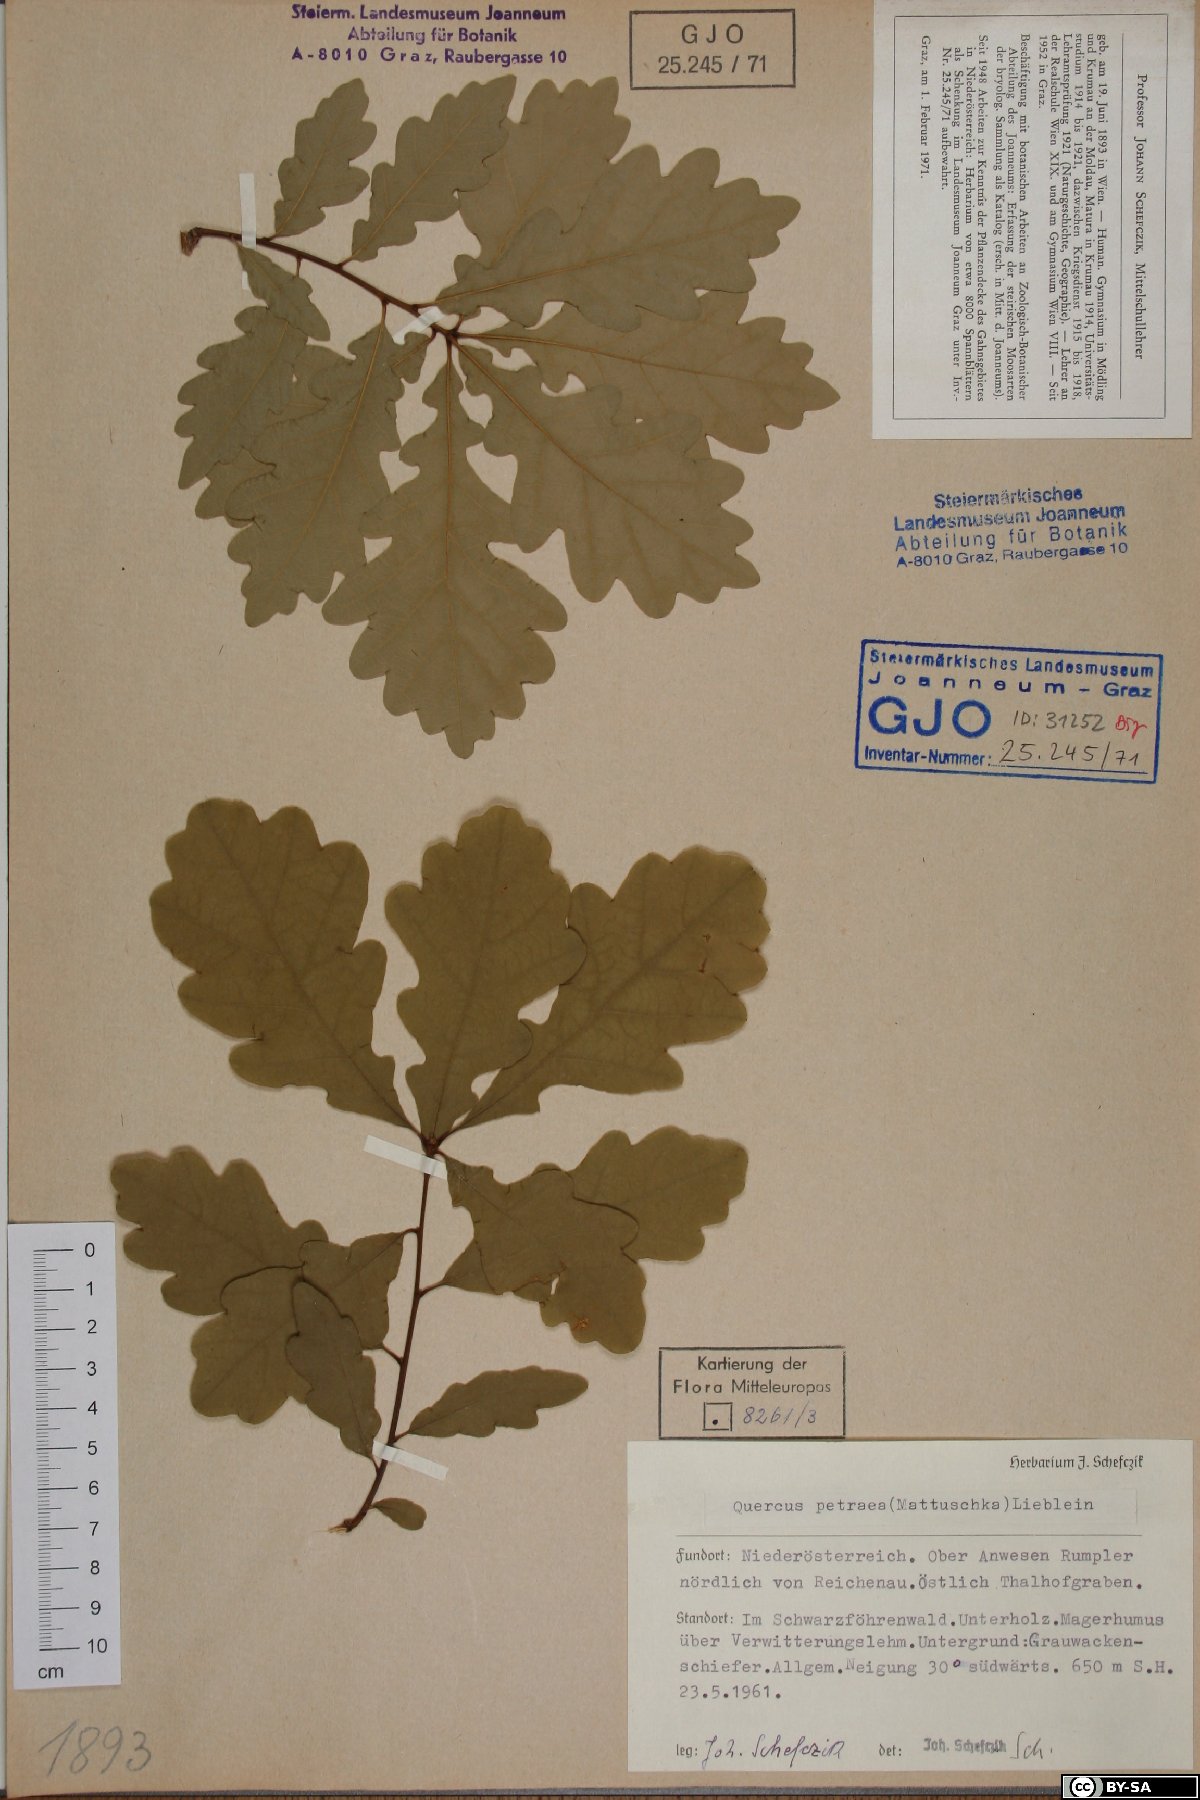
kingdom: Plantae
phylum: Tracheophyta
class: Magnoliopsida
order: Fagales
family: Fagaceae
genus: Quercus
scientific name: Quercus petraea
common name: Sessile oak
